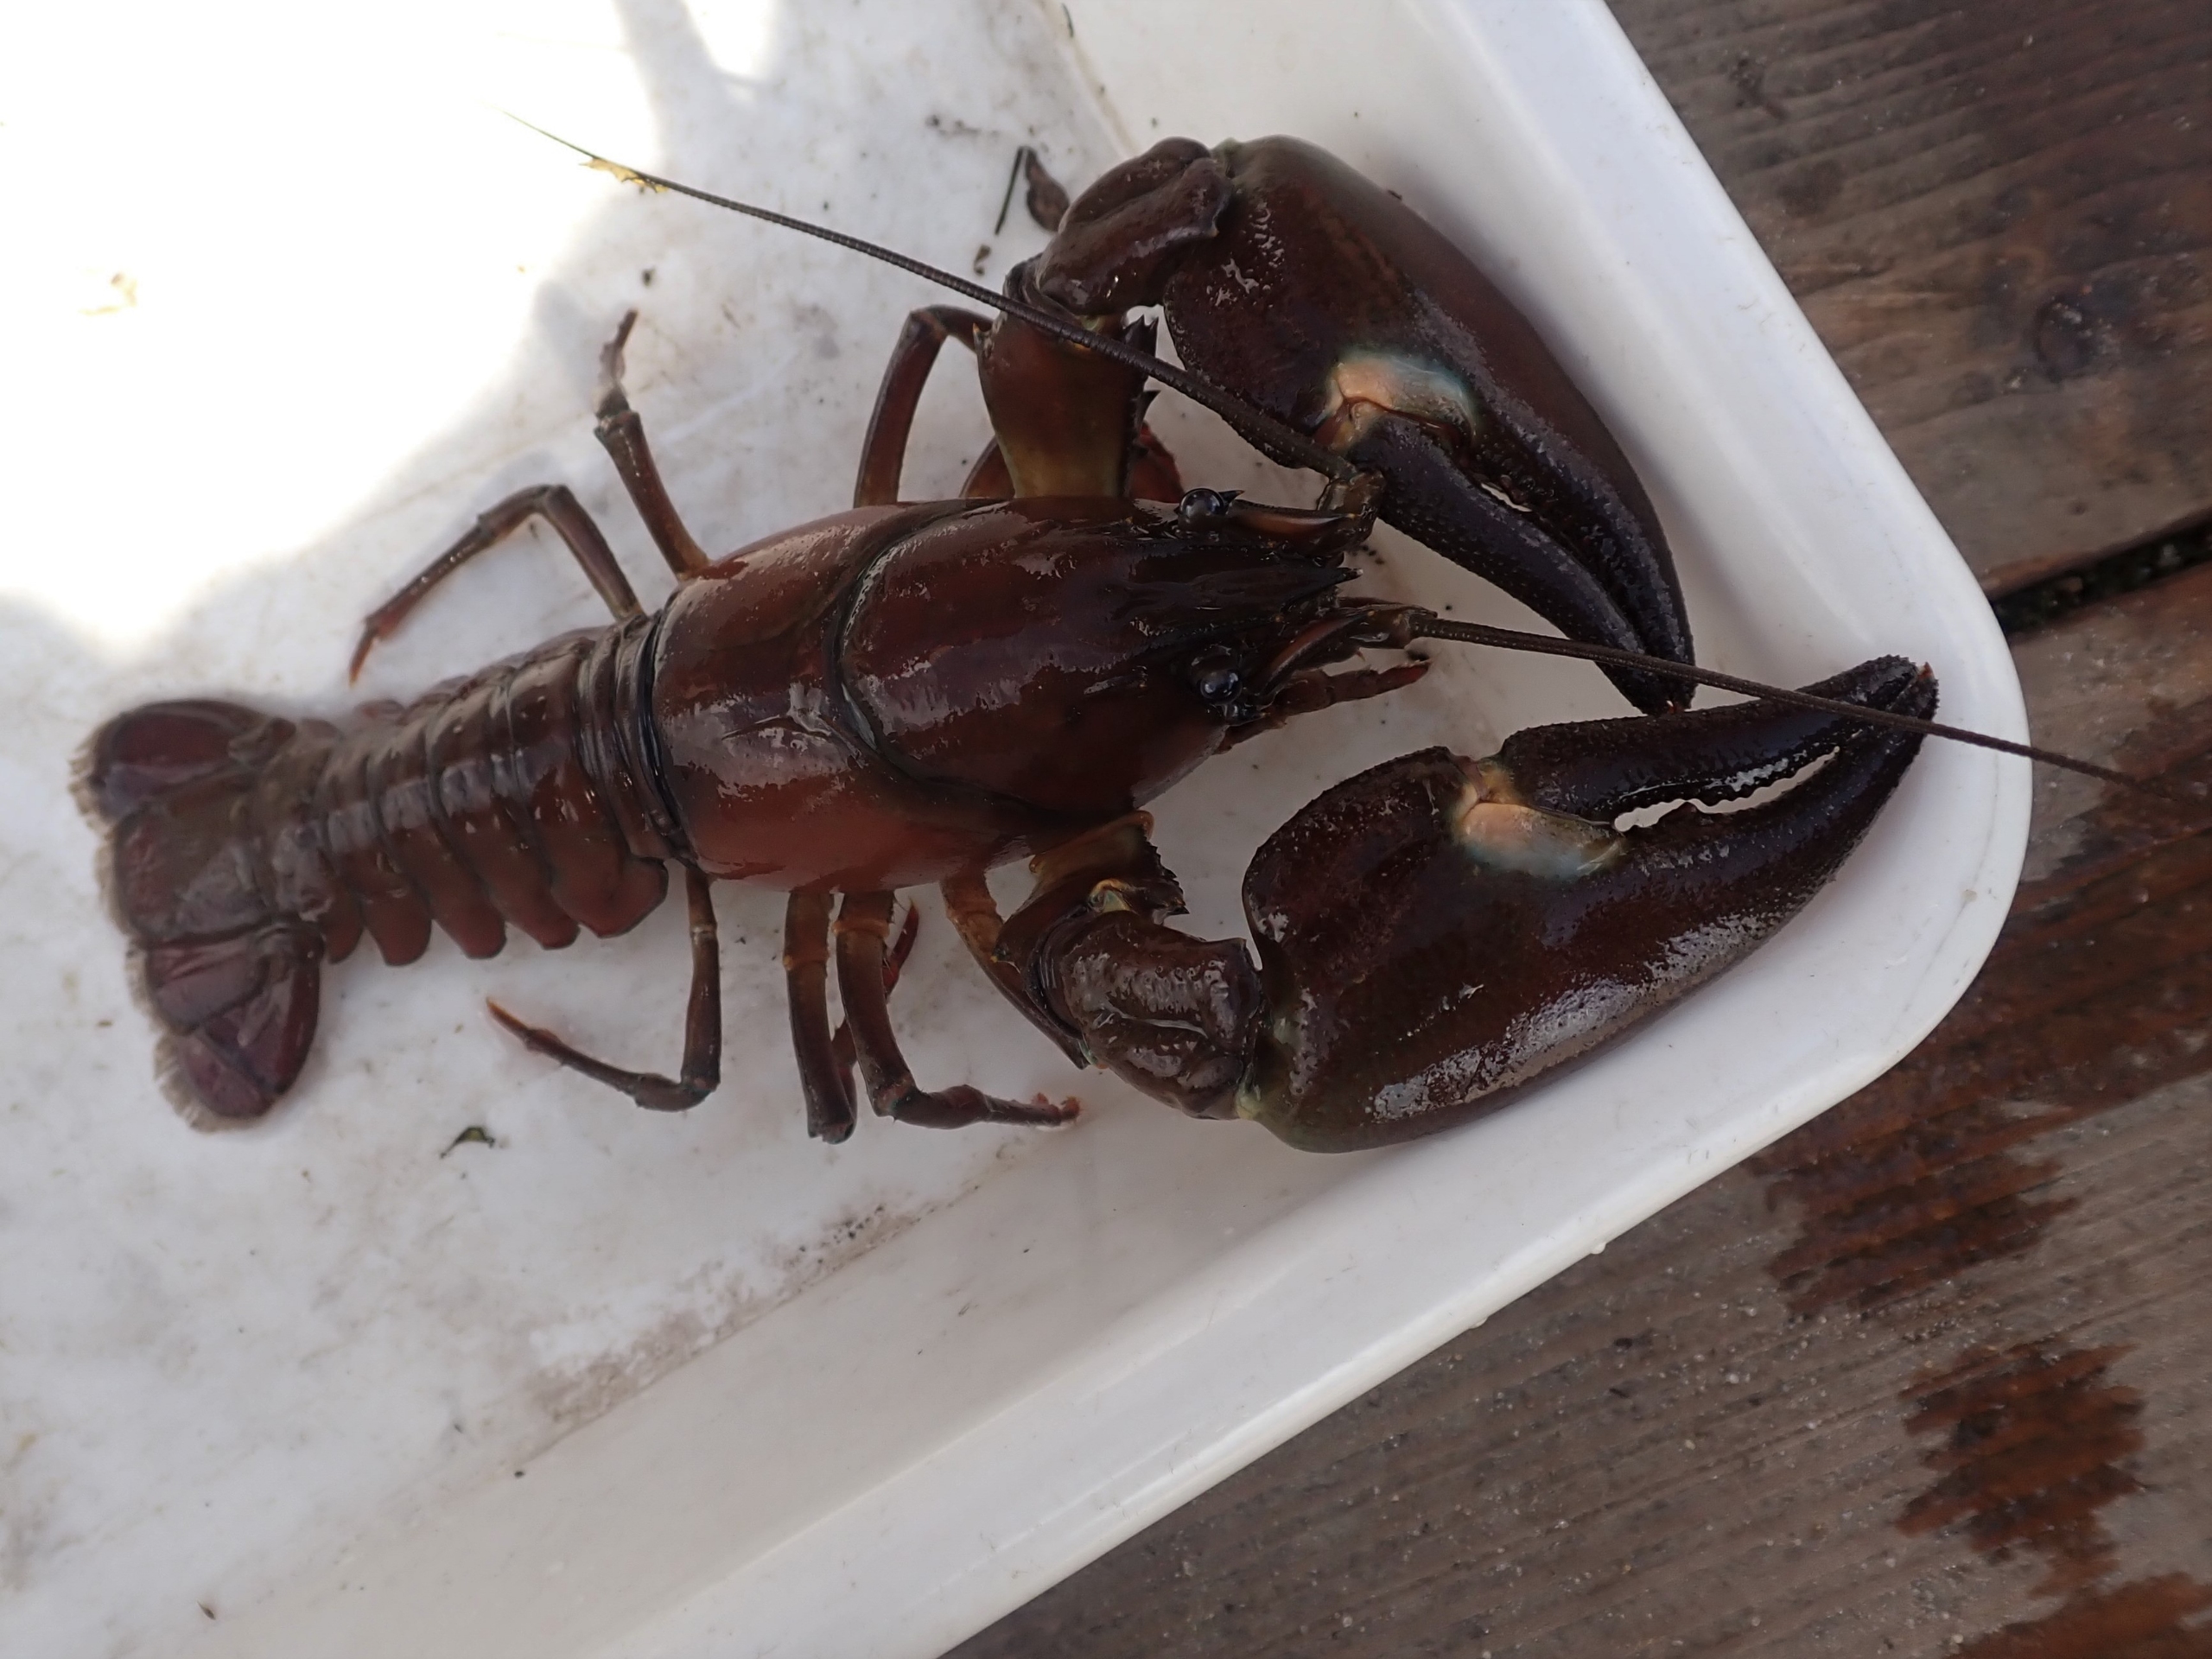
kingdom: Animalia
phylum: Arthropoda
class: Malacostraca
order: Decapoda
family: Astacidae
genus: Pacifastacus
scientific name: Pacifastacus leniusculus
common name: Signalkrebs
